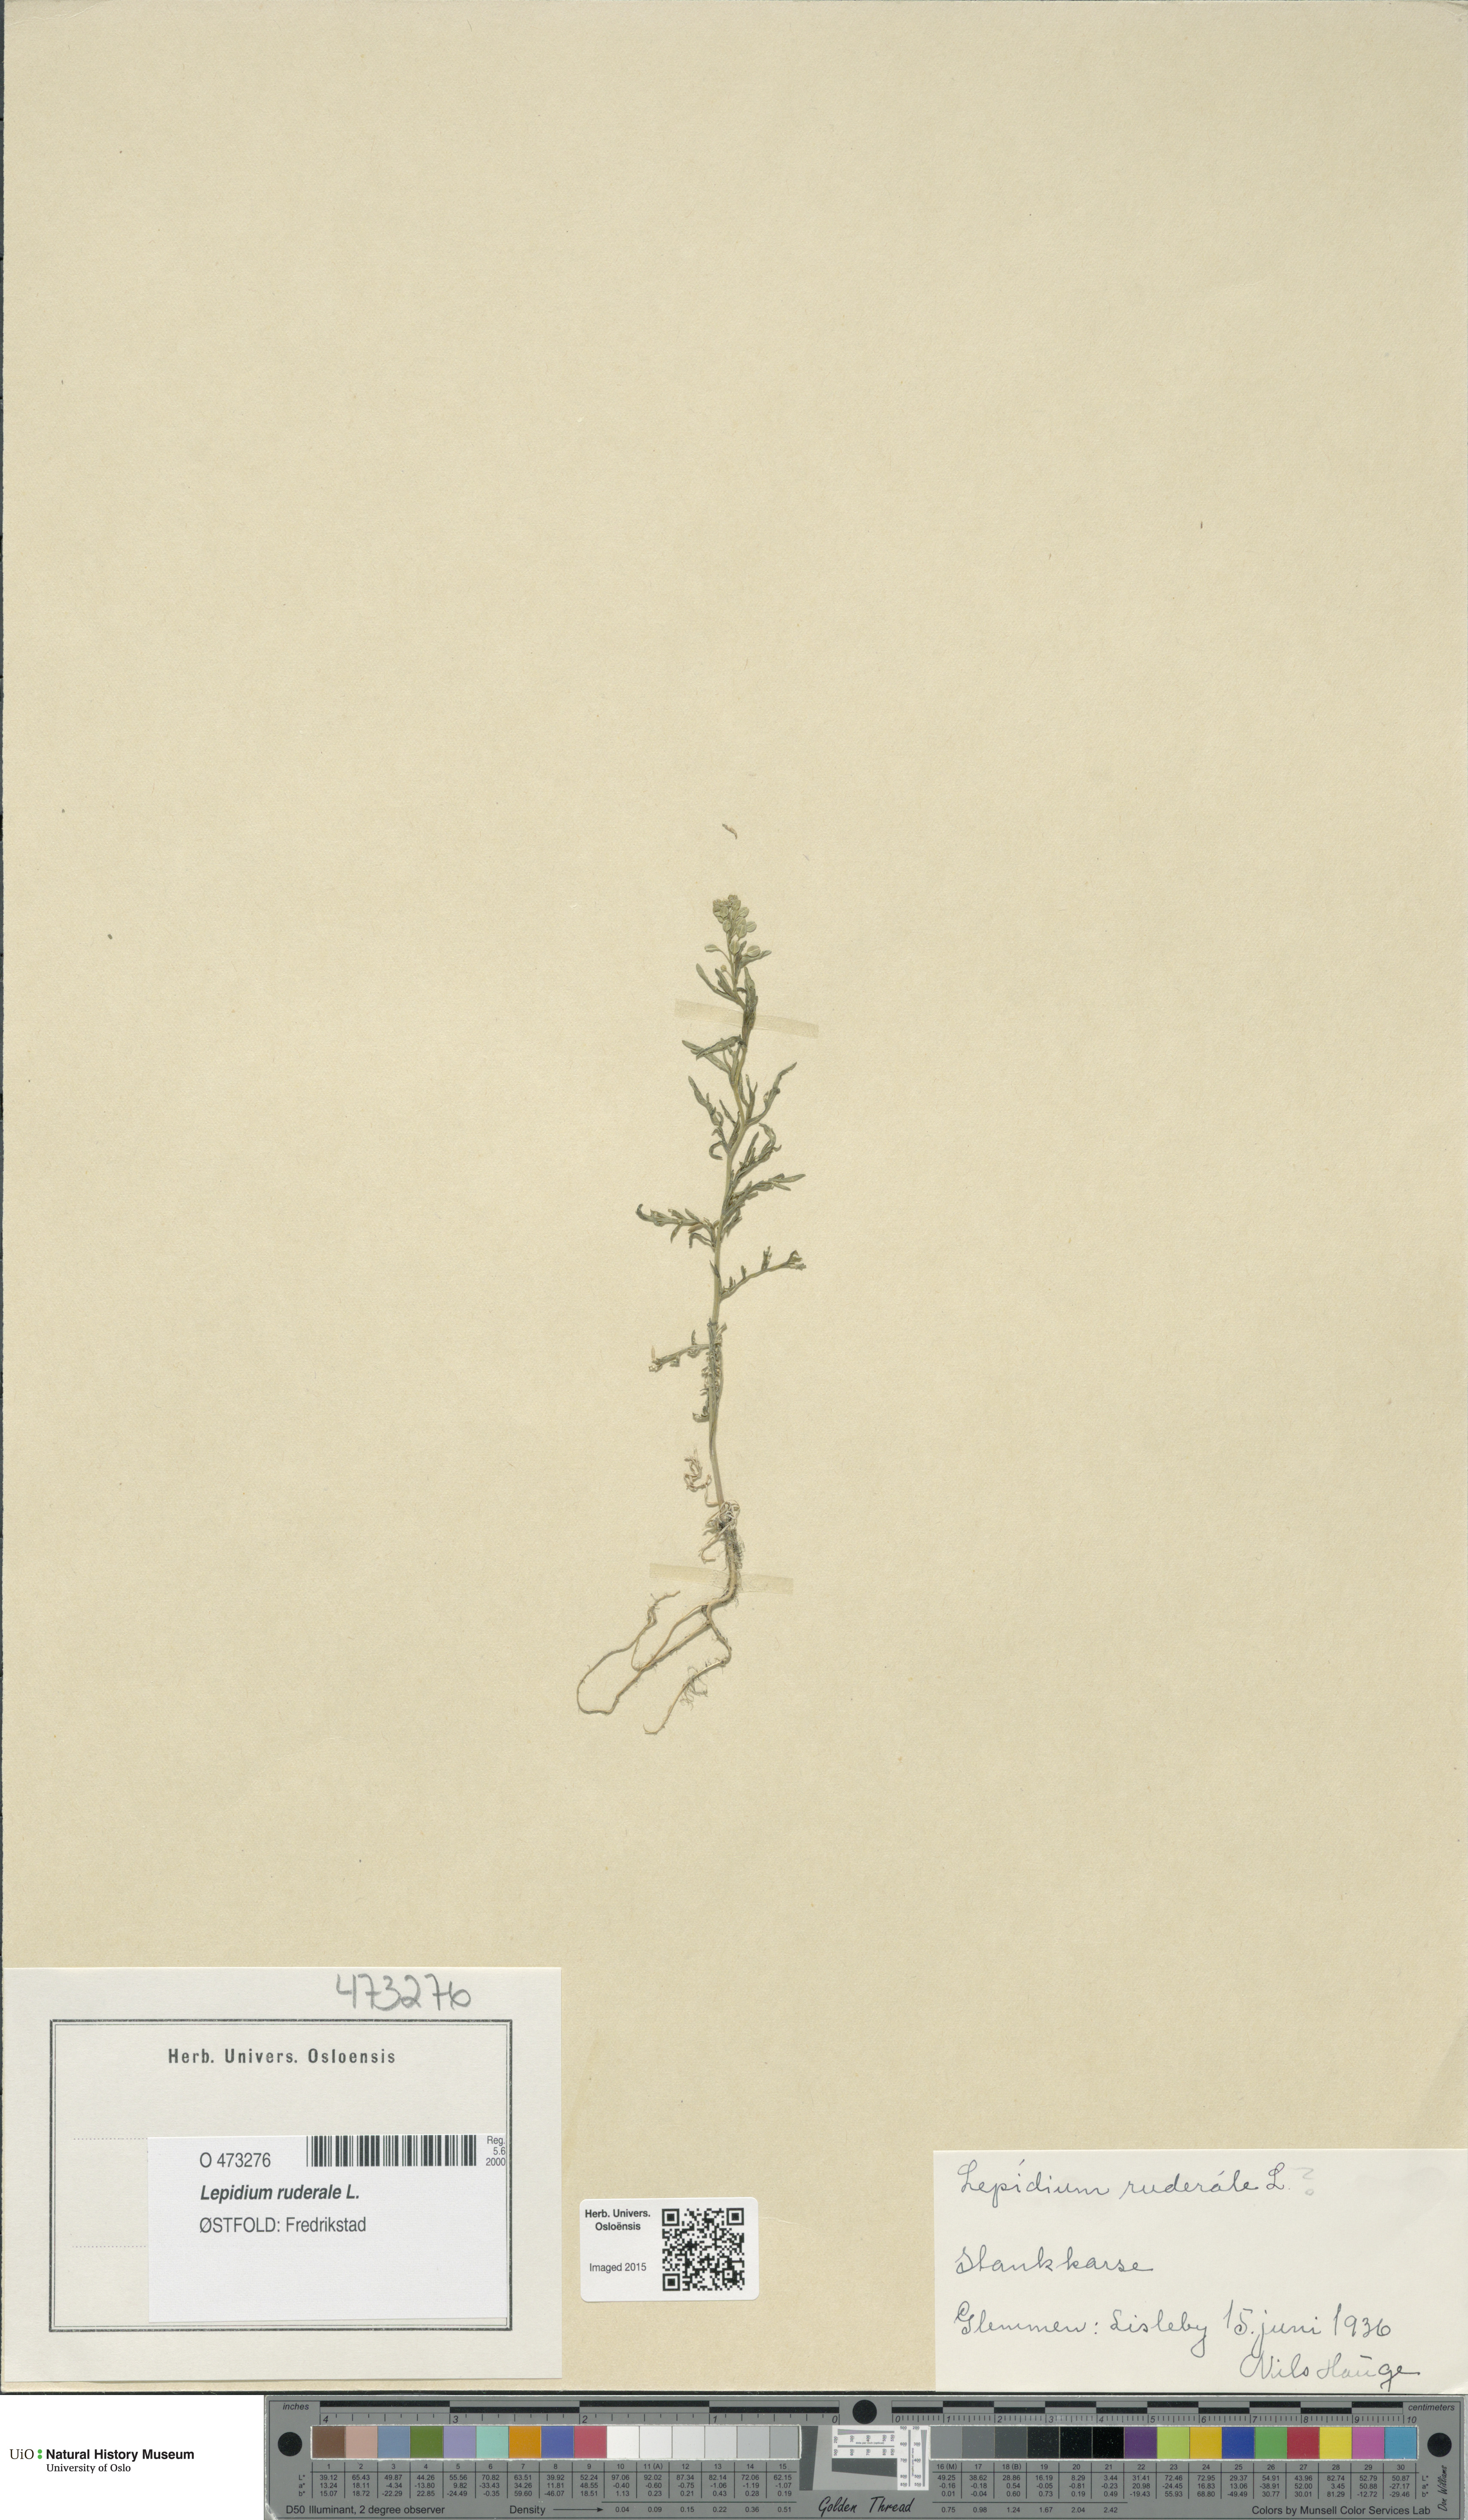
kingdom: Plantae
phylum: Tracheophyta
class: Magnoliopsida
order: Brassicales
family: Brassicaceae
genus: Lepidium
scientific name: Lepidium ruderale
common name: Narrow-leaved pepperwort
